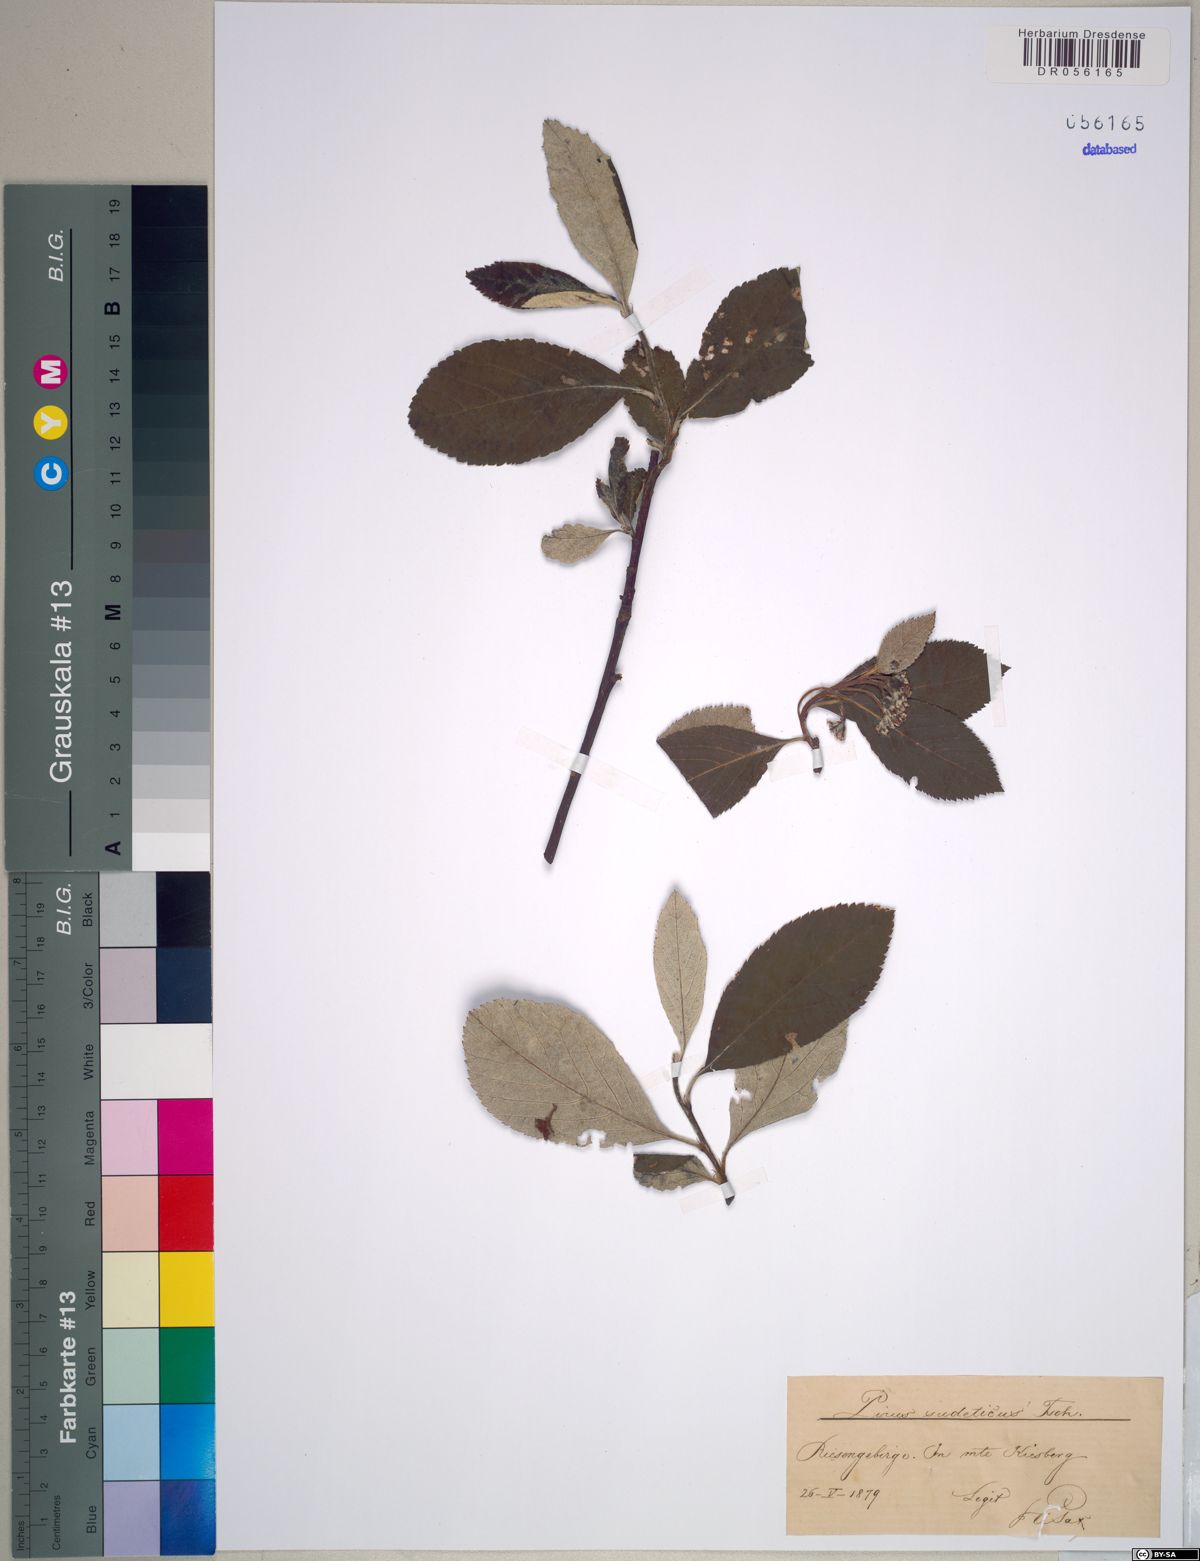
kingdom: Plantae
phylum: Tracheophyta
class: Magnoliopsida
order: Rosales
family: Rosaceae
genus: Majovskya
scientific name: Majovskya sudetica
